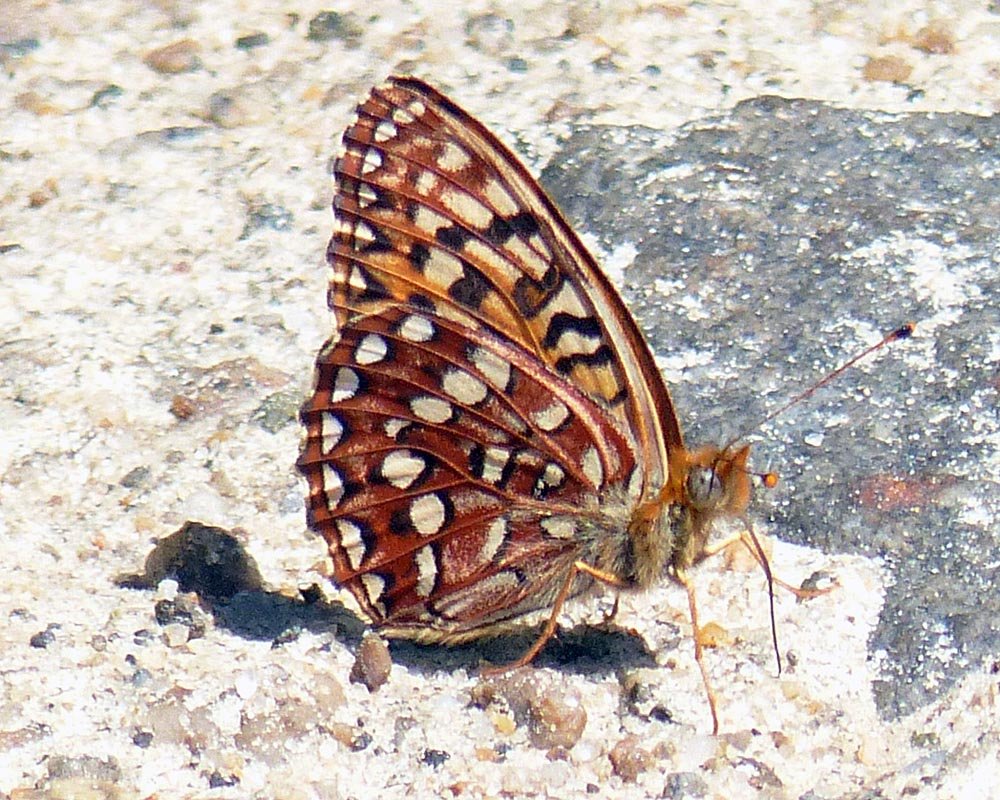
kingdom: Animalia
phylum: Arthropoda
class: Insecta
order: Lepidoptera
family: Nymphalidae
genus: Speyeria
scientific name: Speyeria hydaspe
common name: Hydaspe Fritillary
